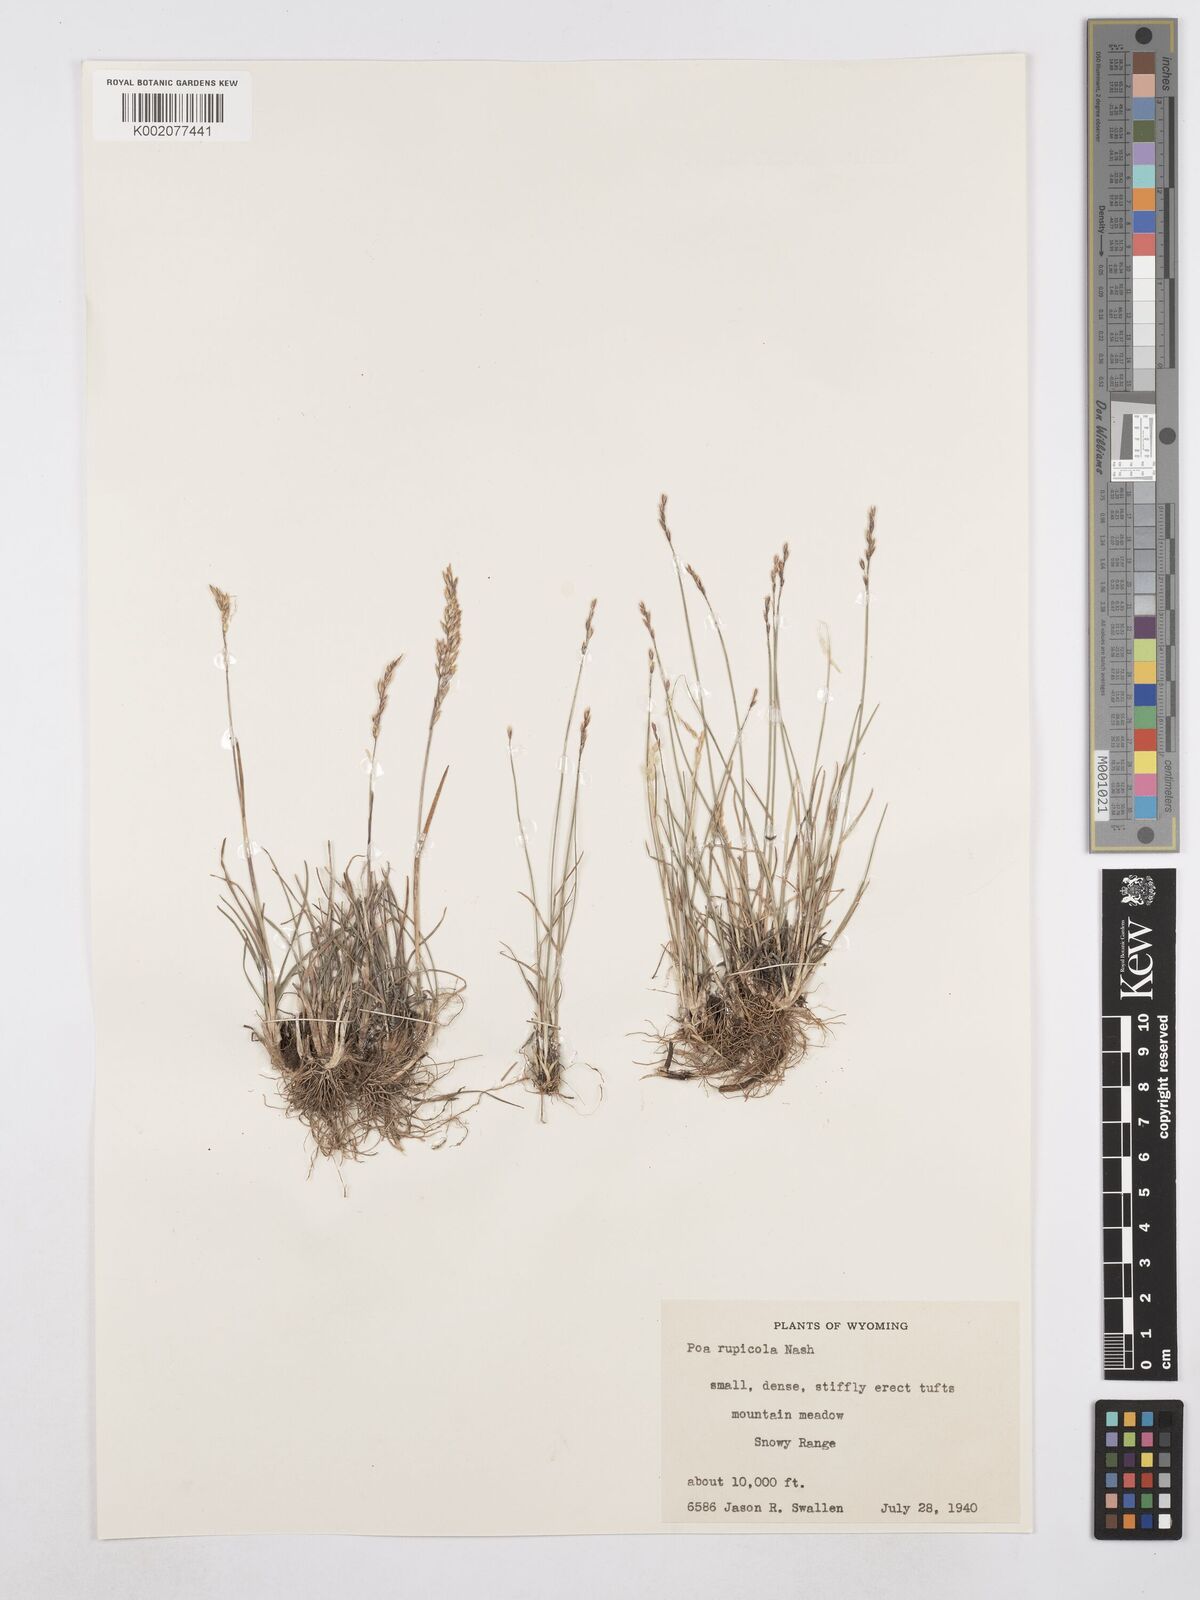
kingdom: Plantae
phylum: Tracheophyta
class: Liliopsida
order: Poales
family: Poaceae
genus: Poa
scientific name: Poa glauca
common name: Glaucous bluegrass
